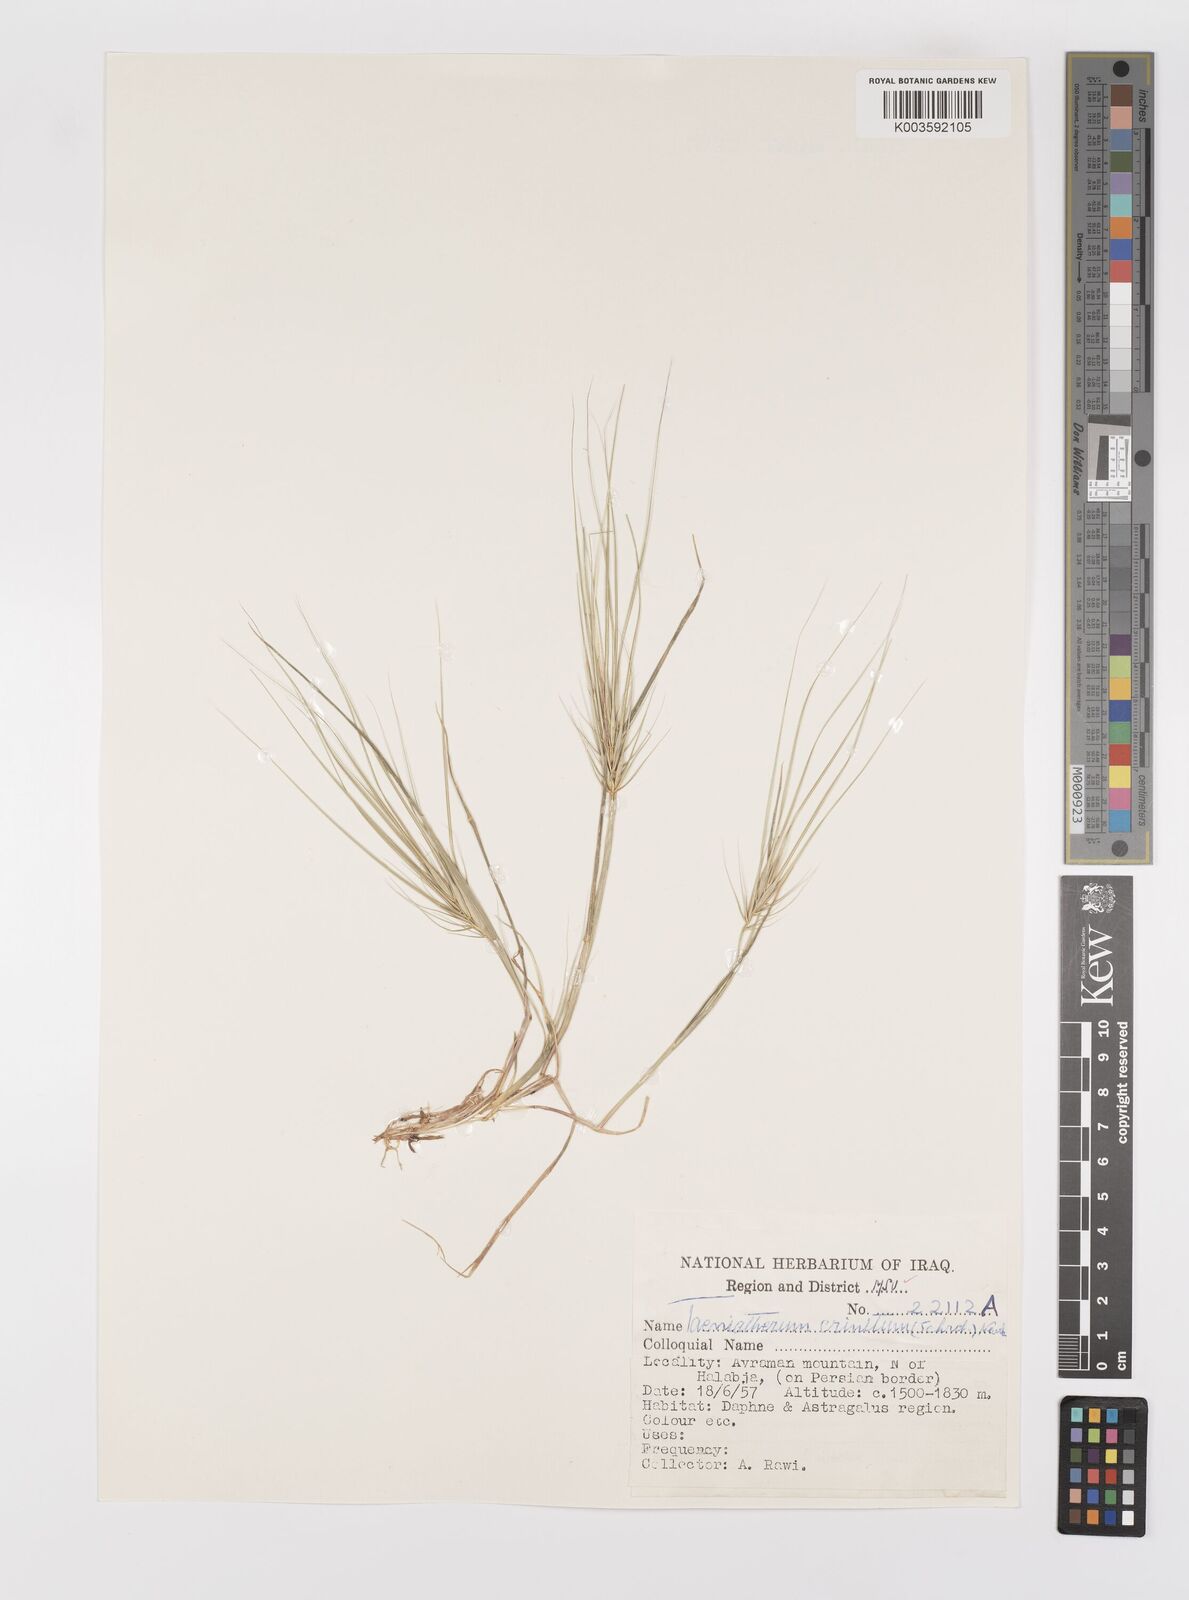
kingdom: Plantae
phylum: Tracheophyta
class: Liliopsida
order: Poales
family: Poaceae
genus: Taeniatherum
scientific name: Taeniatherum caput-medusae
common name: Medusahead
